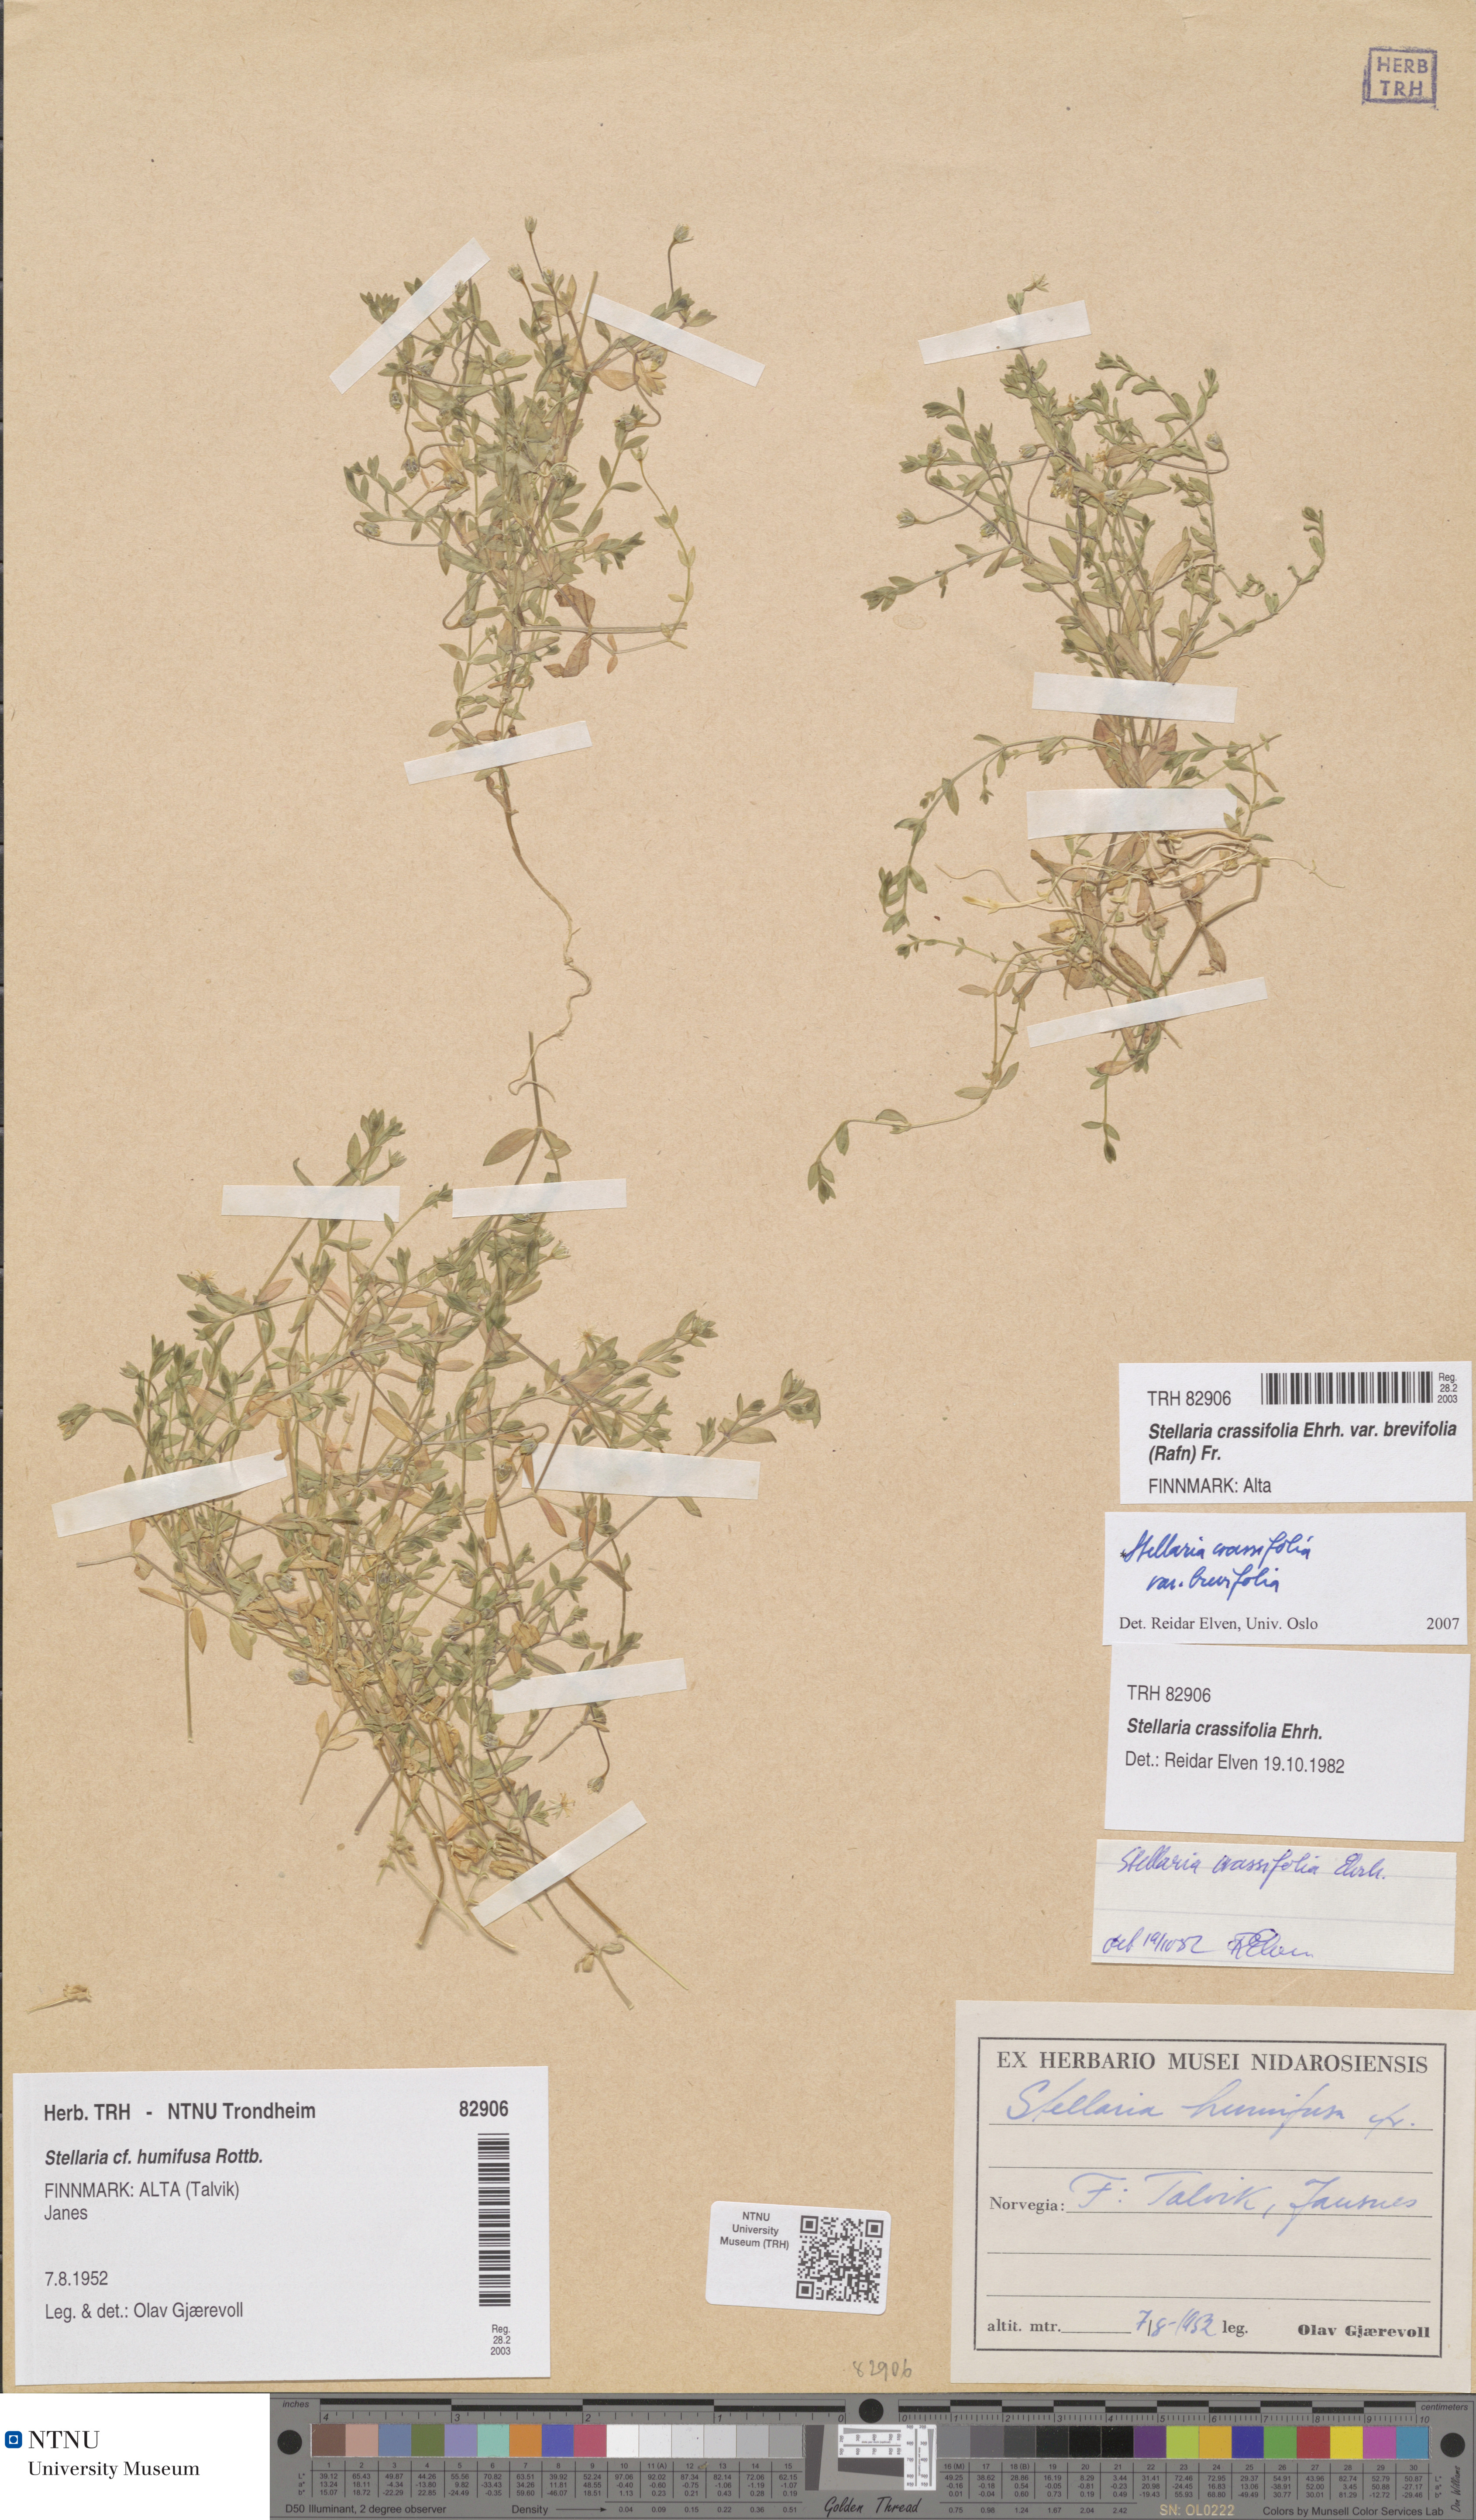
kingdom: Plantae
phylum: Tracheophyta
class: Magnoliopsida
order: Caryophyllales
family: Caryophyllaceae
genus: Stellaria
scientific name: Stellaria crassifolia
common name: Fleshy starwort
